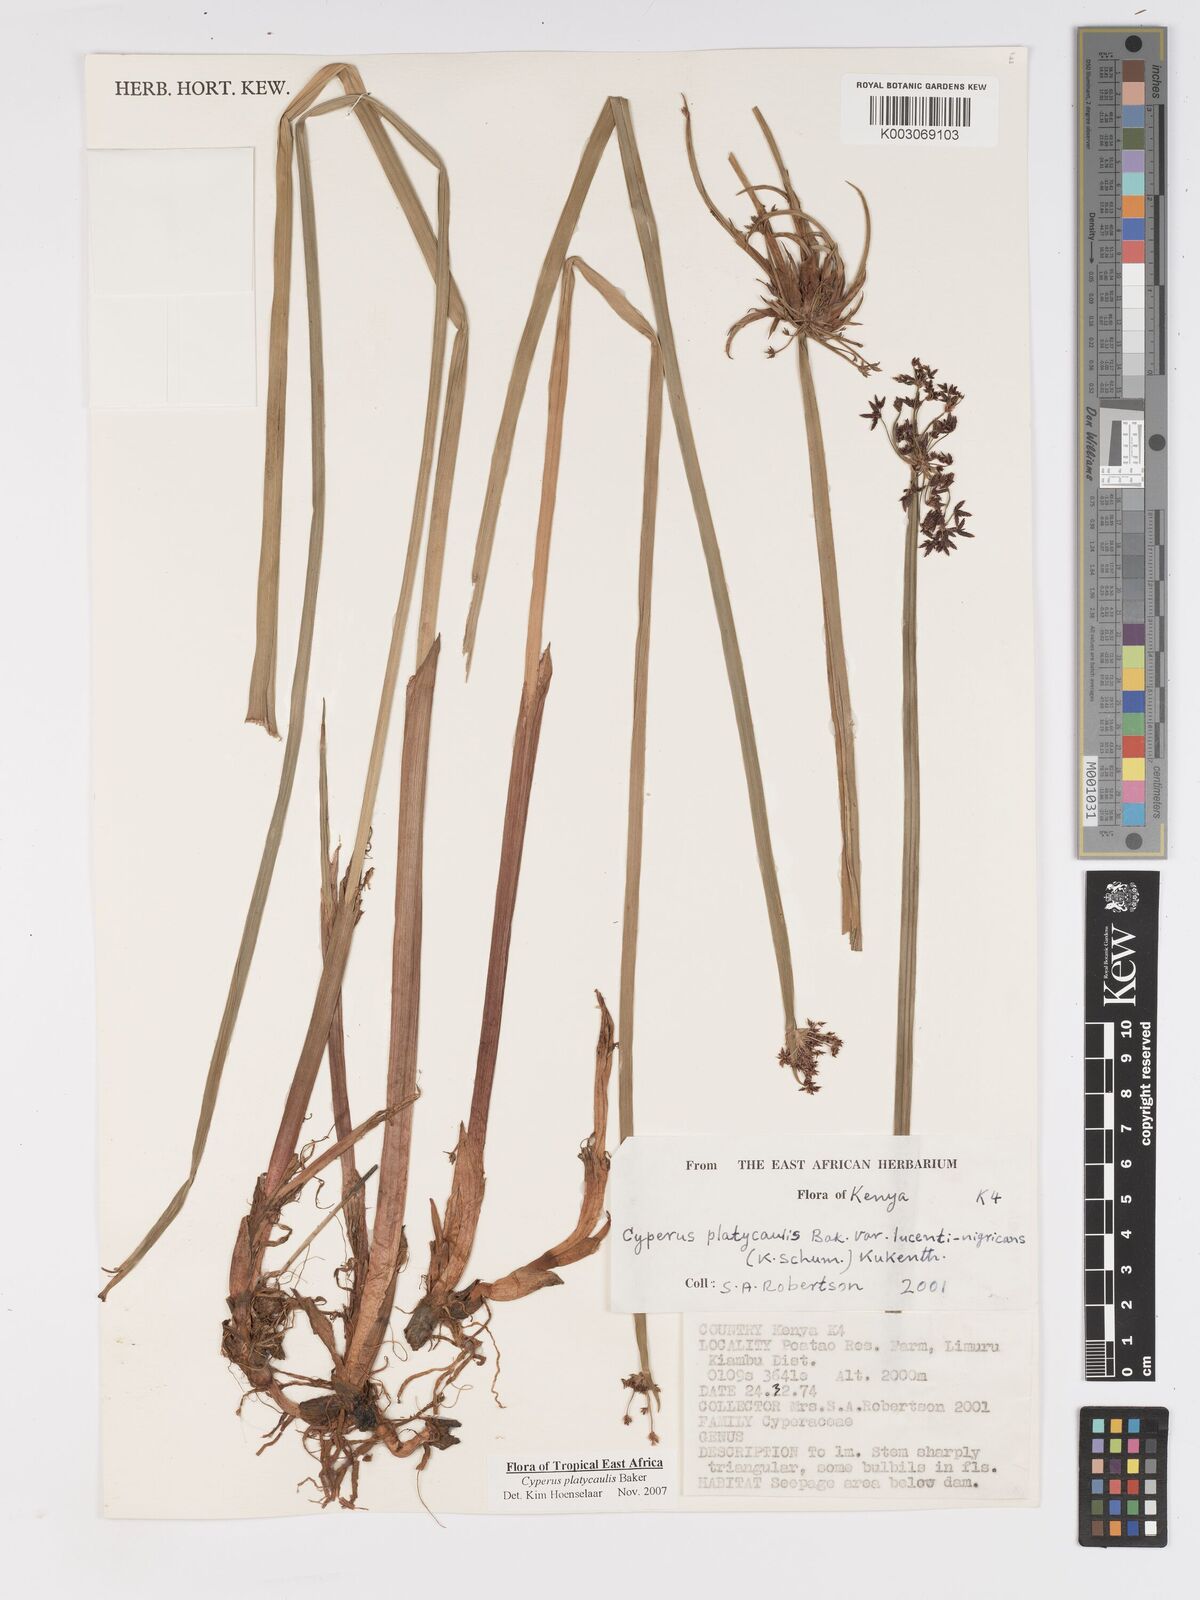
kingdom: Plantae
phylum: Tracheophyta
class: Liliopsida
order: Poales
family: Cyperaceae
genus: Cyperus
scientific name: Cyperus platycaulis
